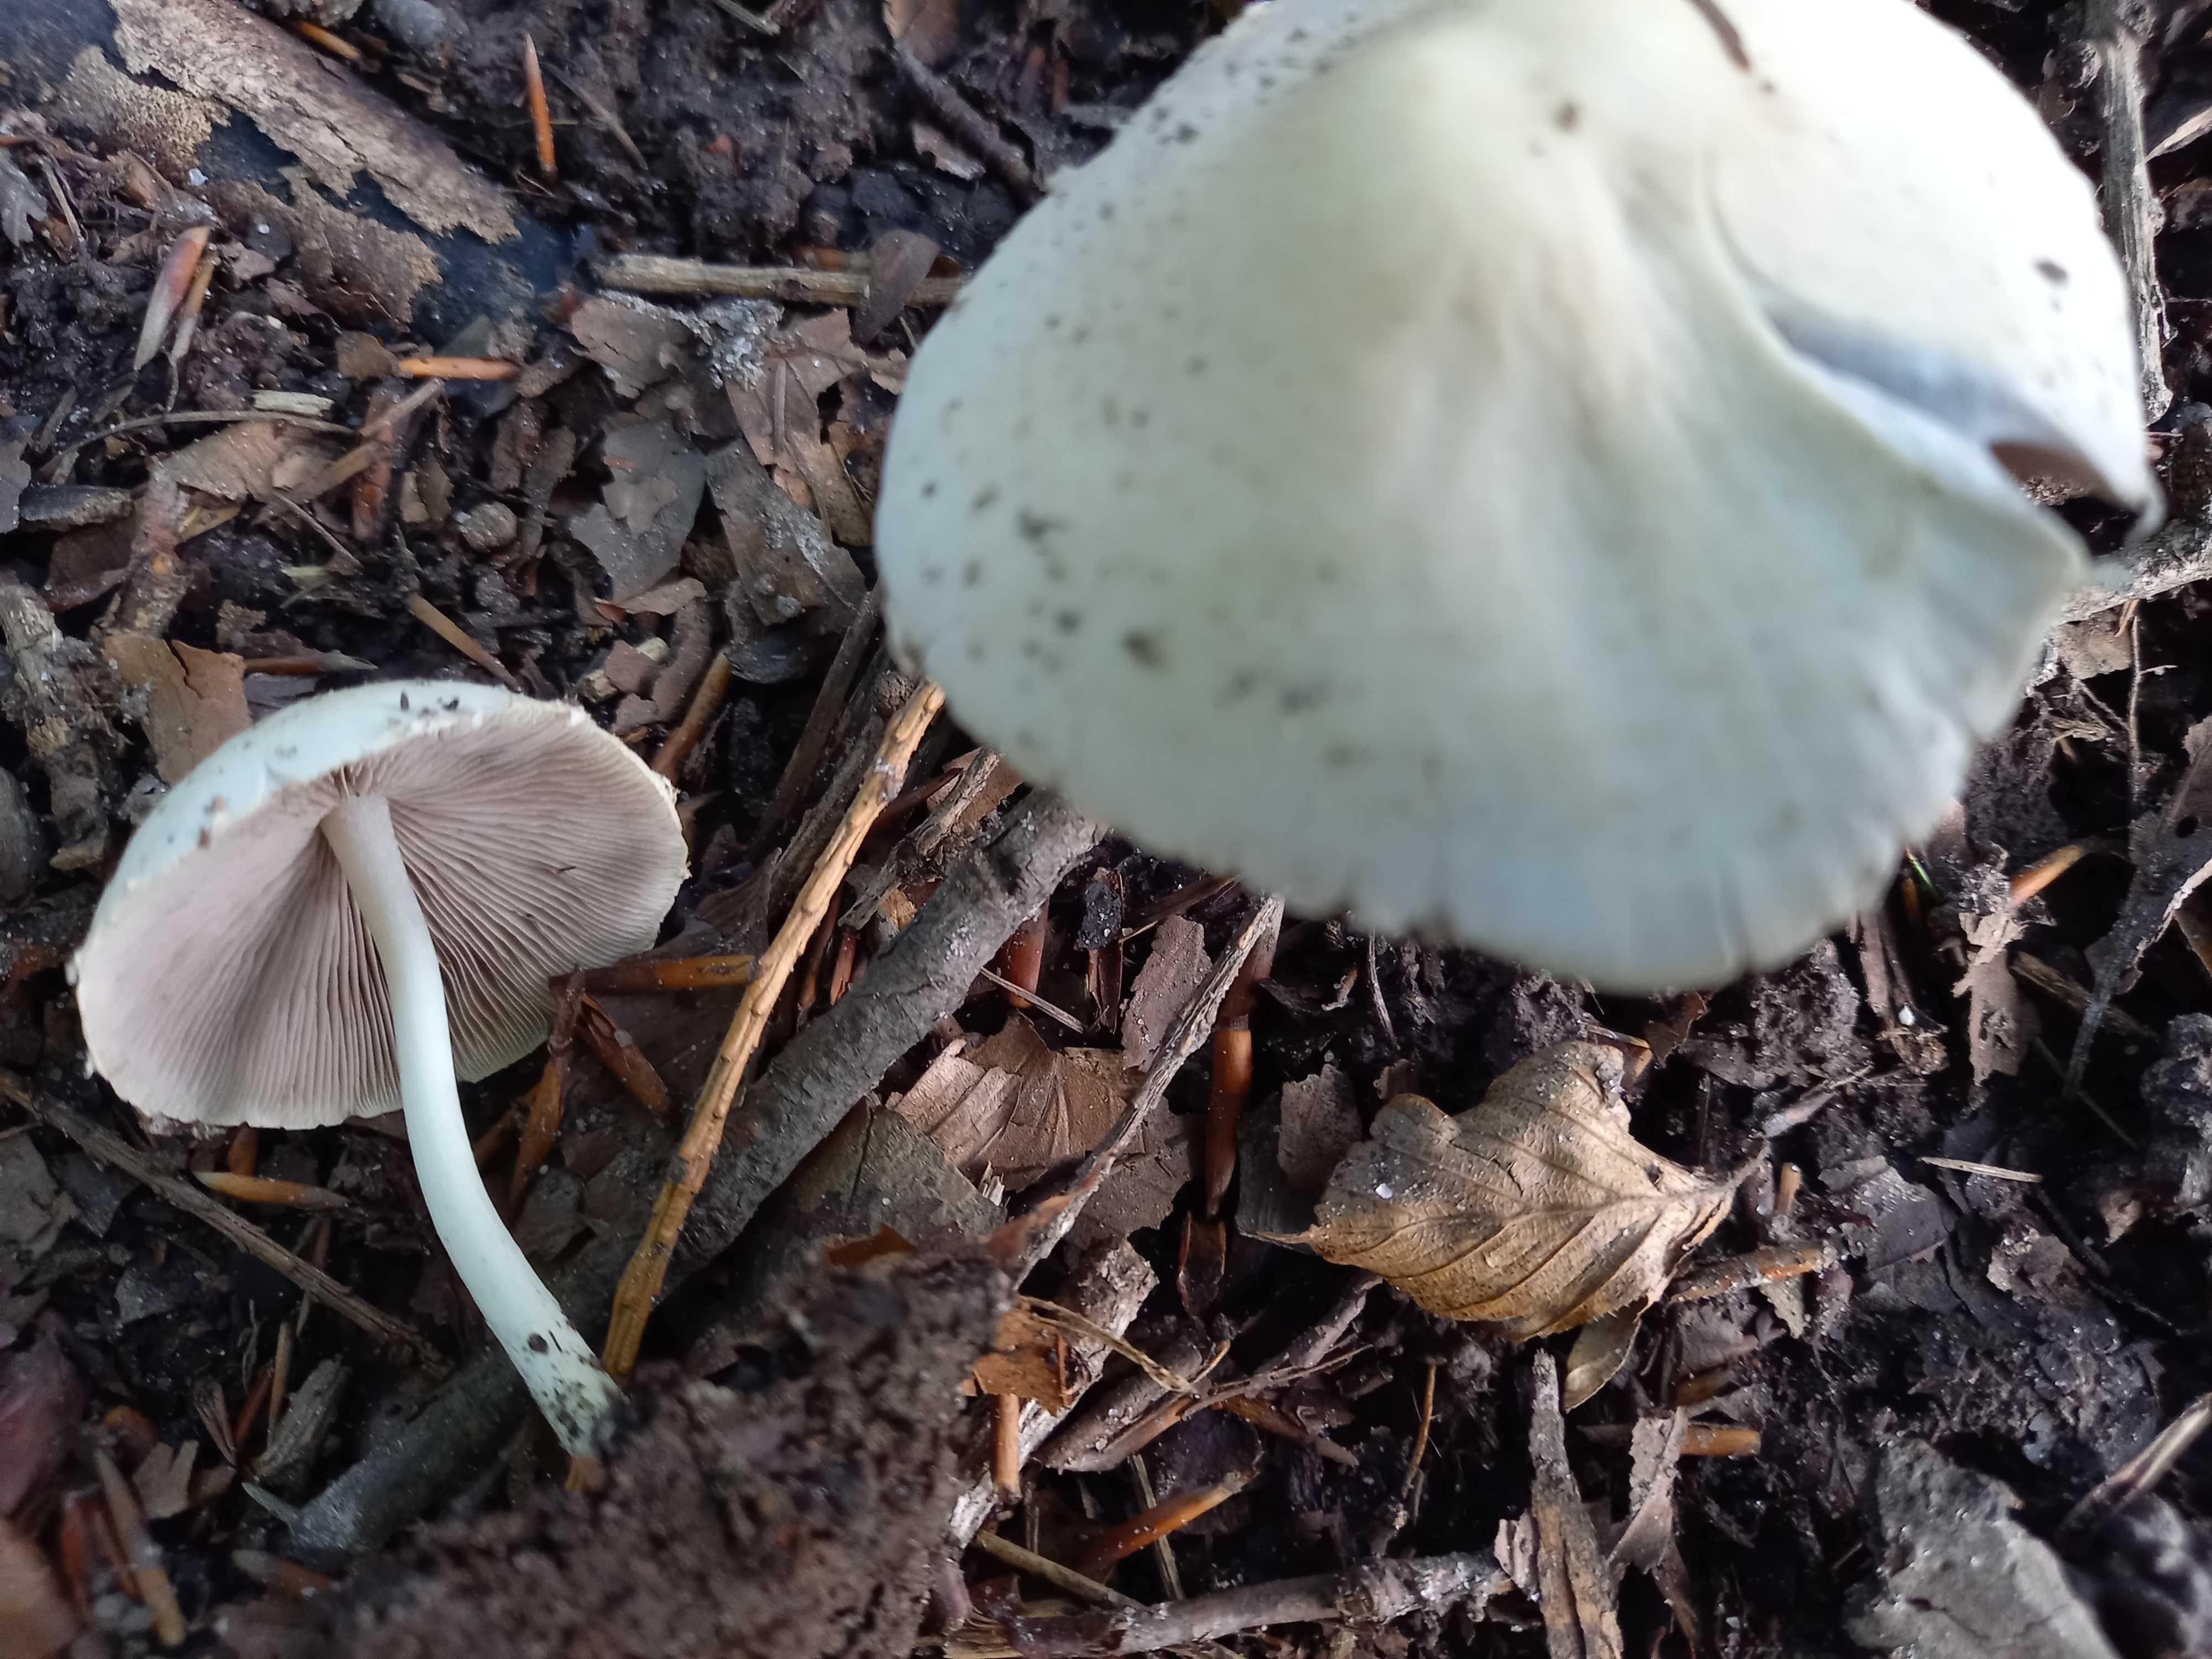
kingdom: Fungi
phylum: Basidiomycota
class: Agaricomycetes
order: Agaricales
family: Psathyrellaceae
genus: Candolleomyces
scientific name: Candolleomyces candolleanus
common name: Candolles mørkhat
